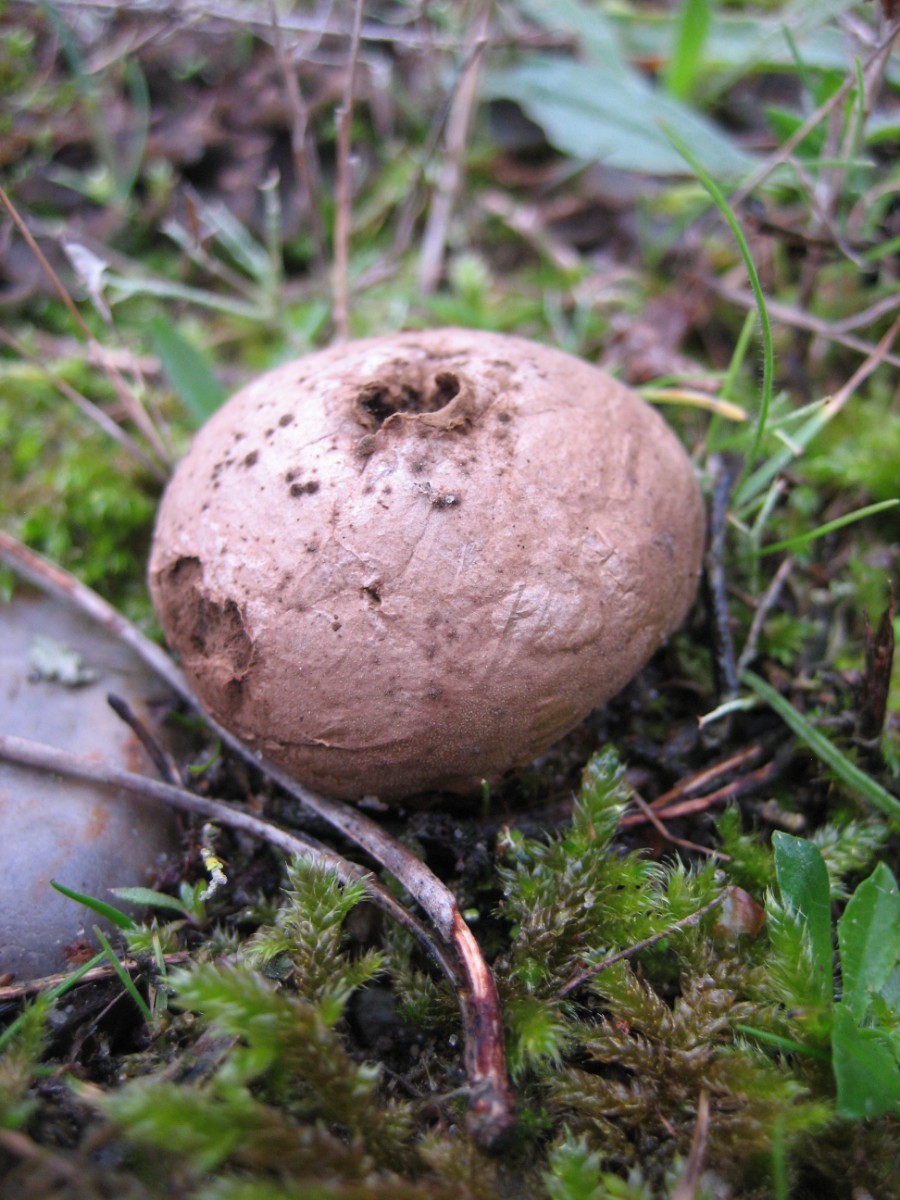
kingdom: Fungi
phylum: Basidiomycota
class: Agaricomycetes
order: Agaricales
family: Agaricaceae
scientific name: Agaricaceae
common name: champignonfamilien
